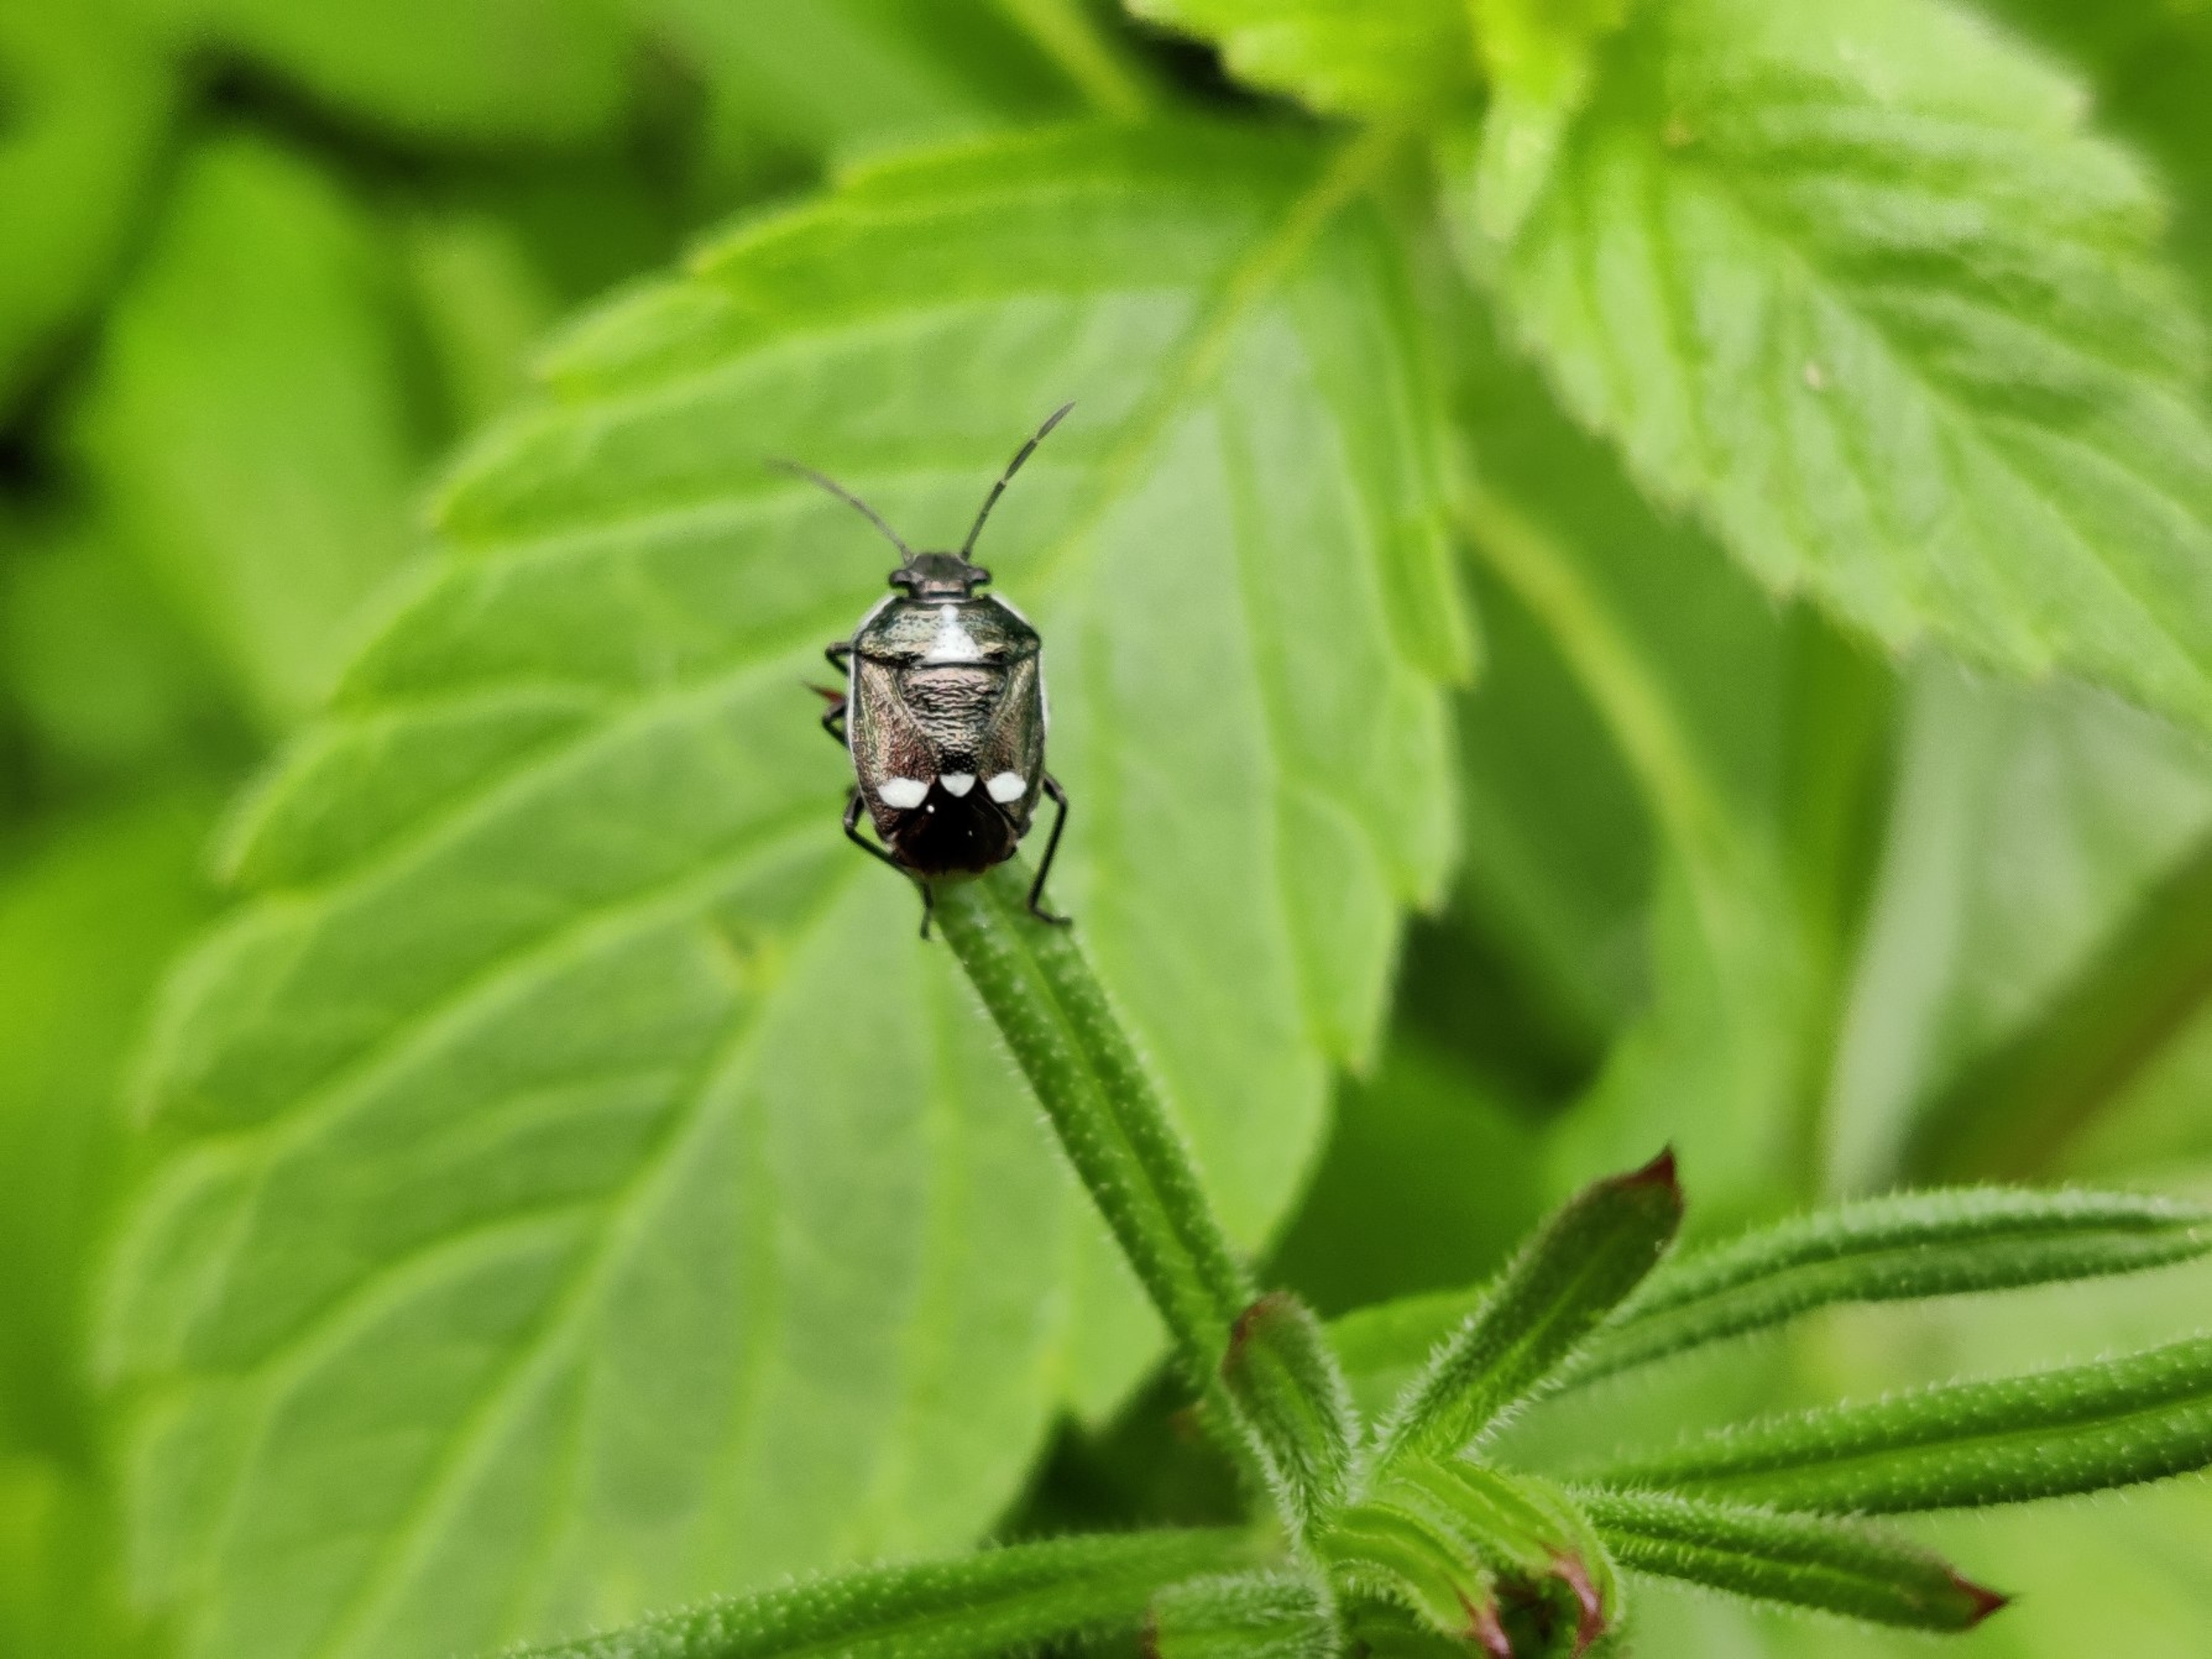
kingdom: Animalia
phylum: Arthropoda
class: Insecta
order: Hemiptera
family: Pentatomidae
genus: Eurydema
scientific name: Eurydema oleracea
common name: Almindelig kåltæge
